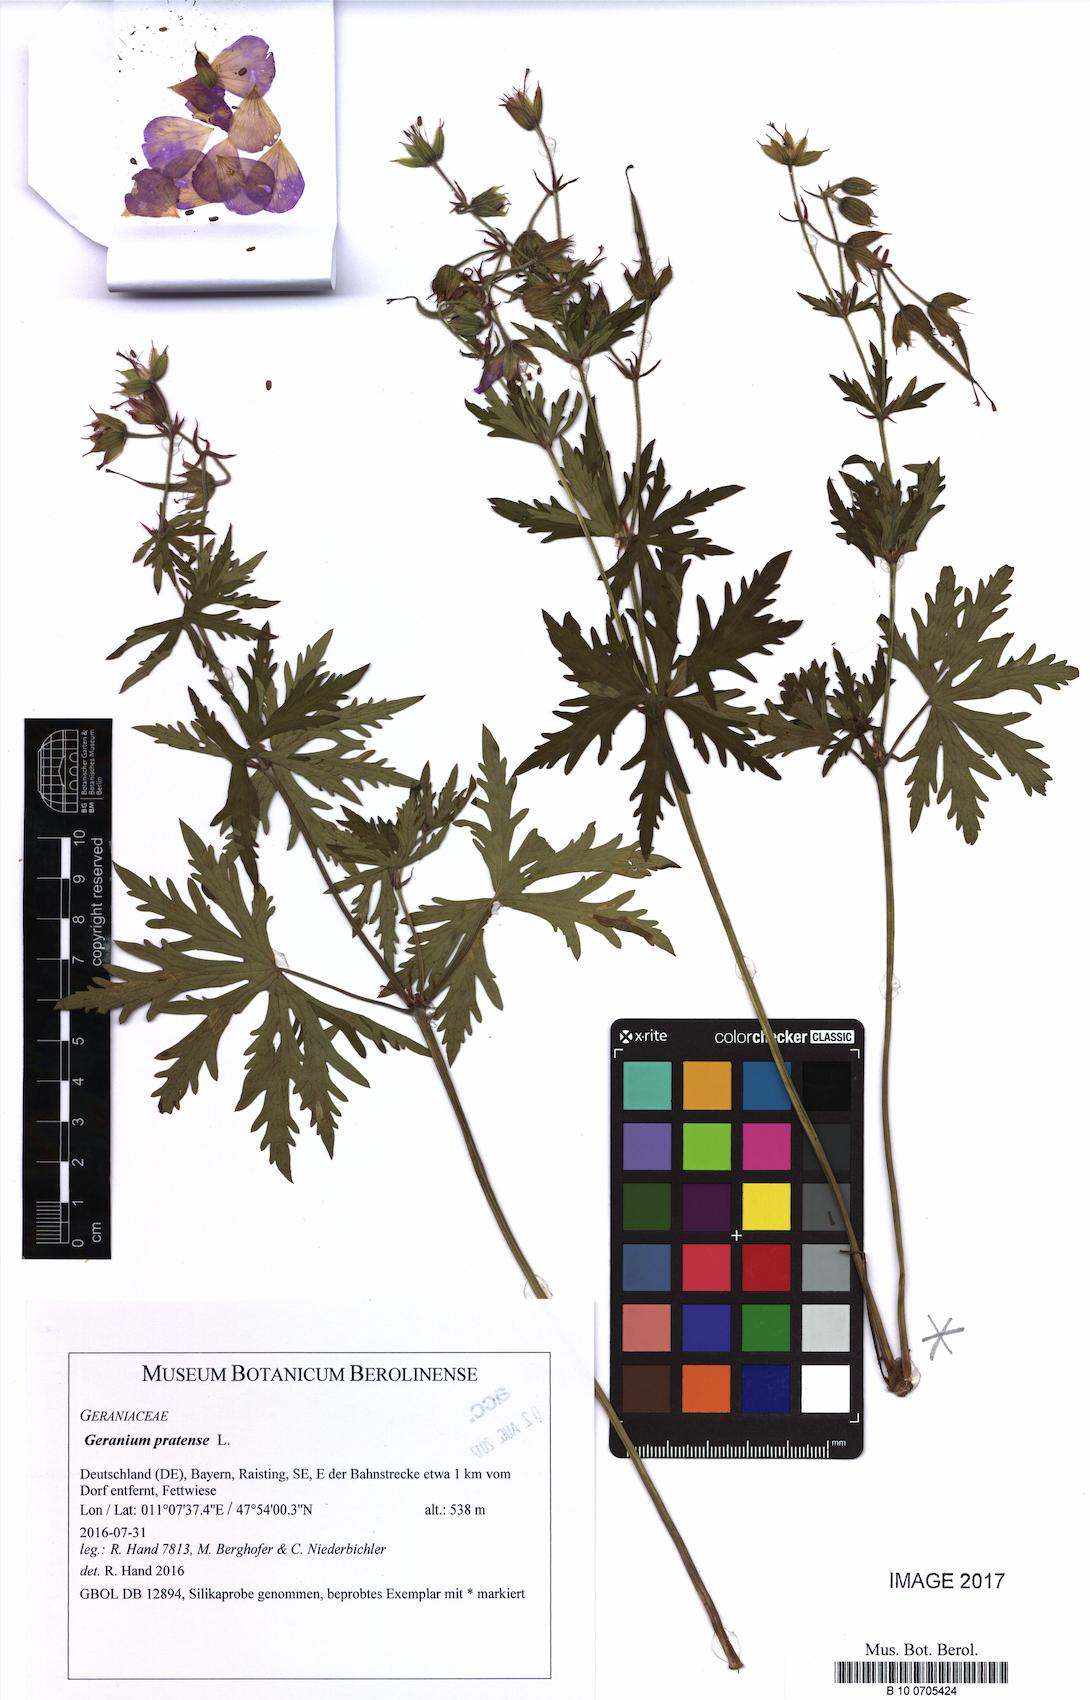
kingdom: Plantae
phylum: Tracheophyta
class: Magnoliopsida
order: Geraniales
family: Geraniaceae
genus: Geranium
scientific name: Geranium pratense
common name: Meadow crane's-bill
